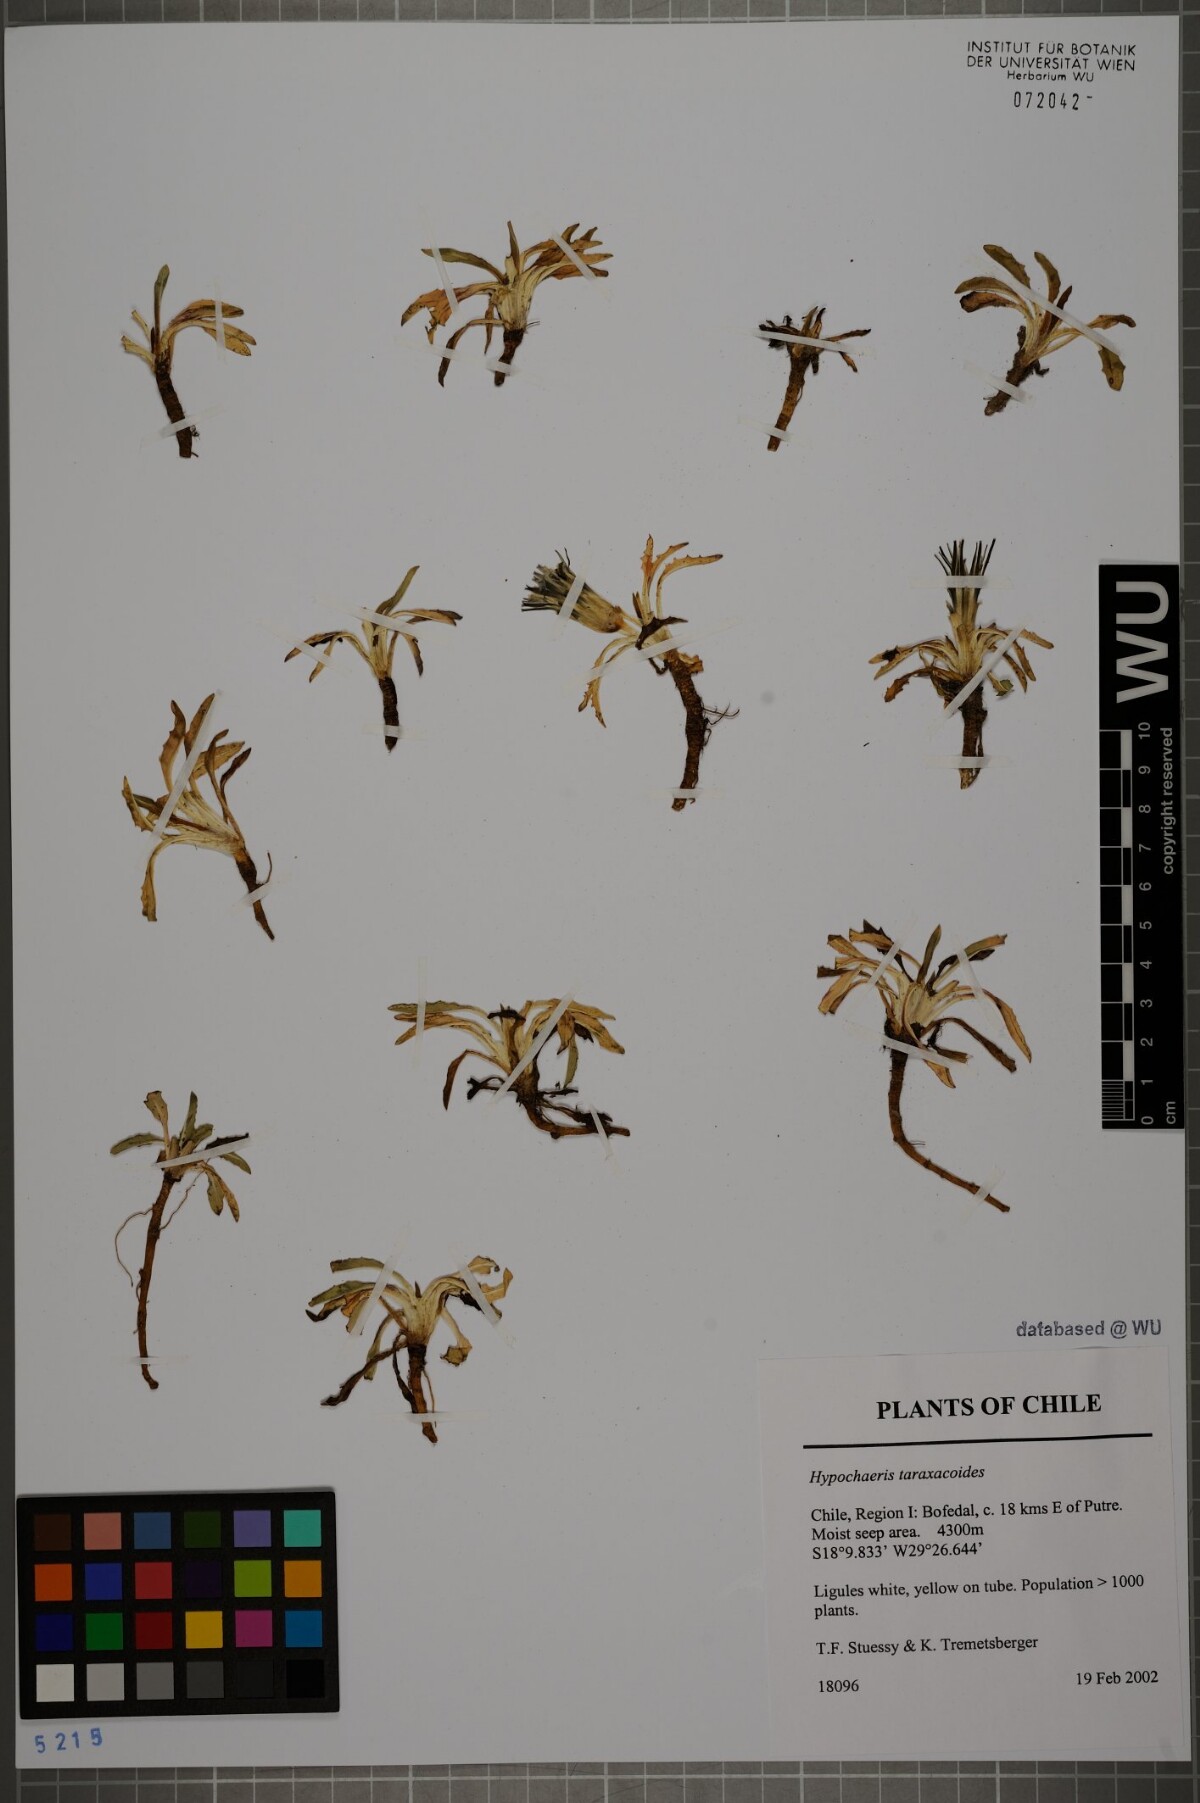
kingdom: Plantae
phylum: Tracheophyta
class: Magnoliopsida
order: Asterales
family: Asteraceae
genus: Hypochaeris
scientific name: Hypochaeris taraxacoides
